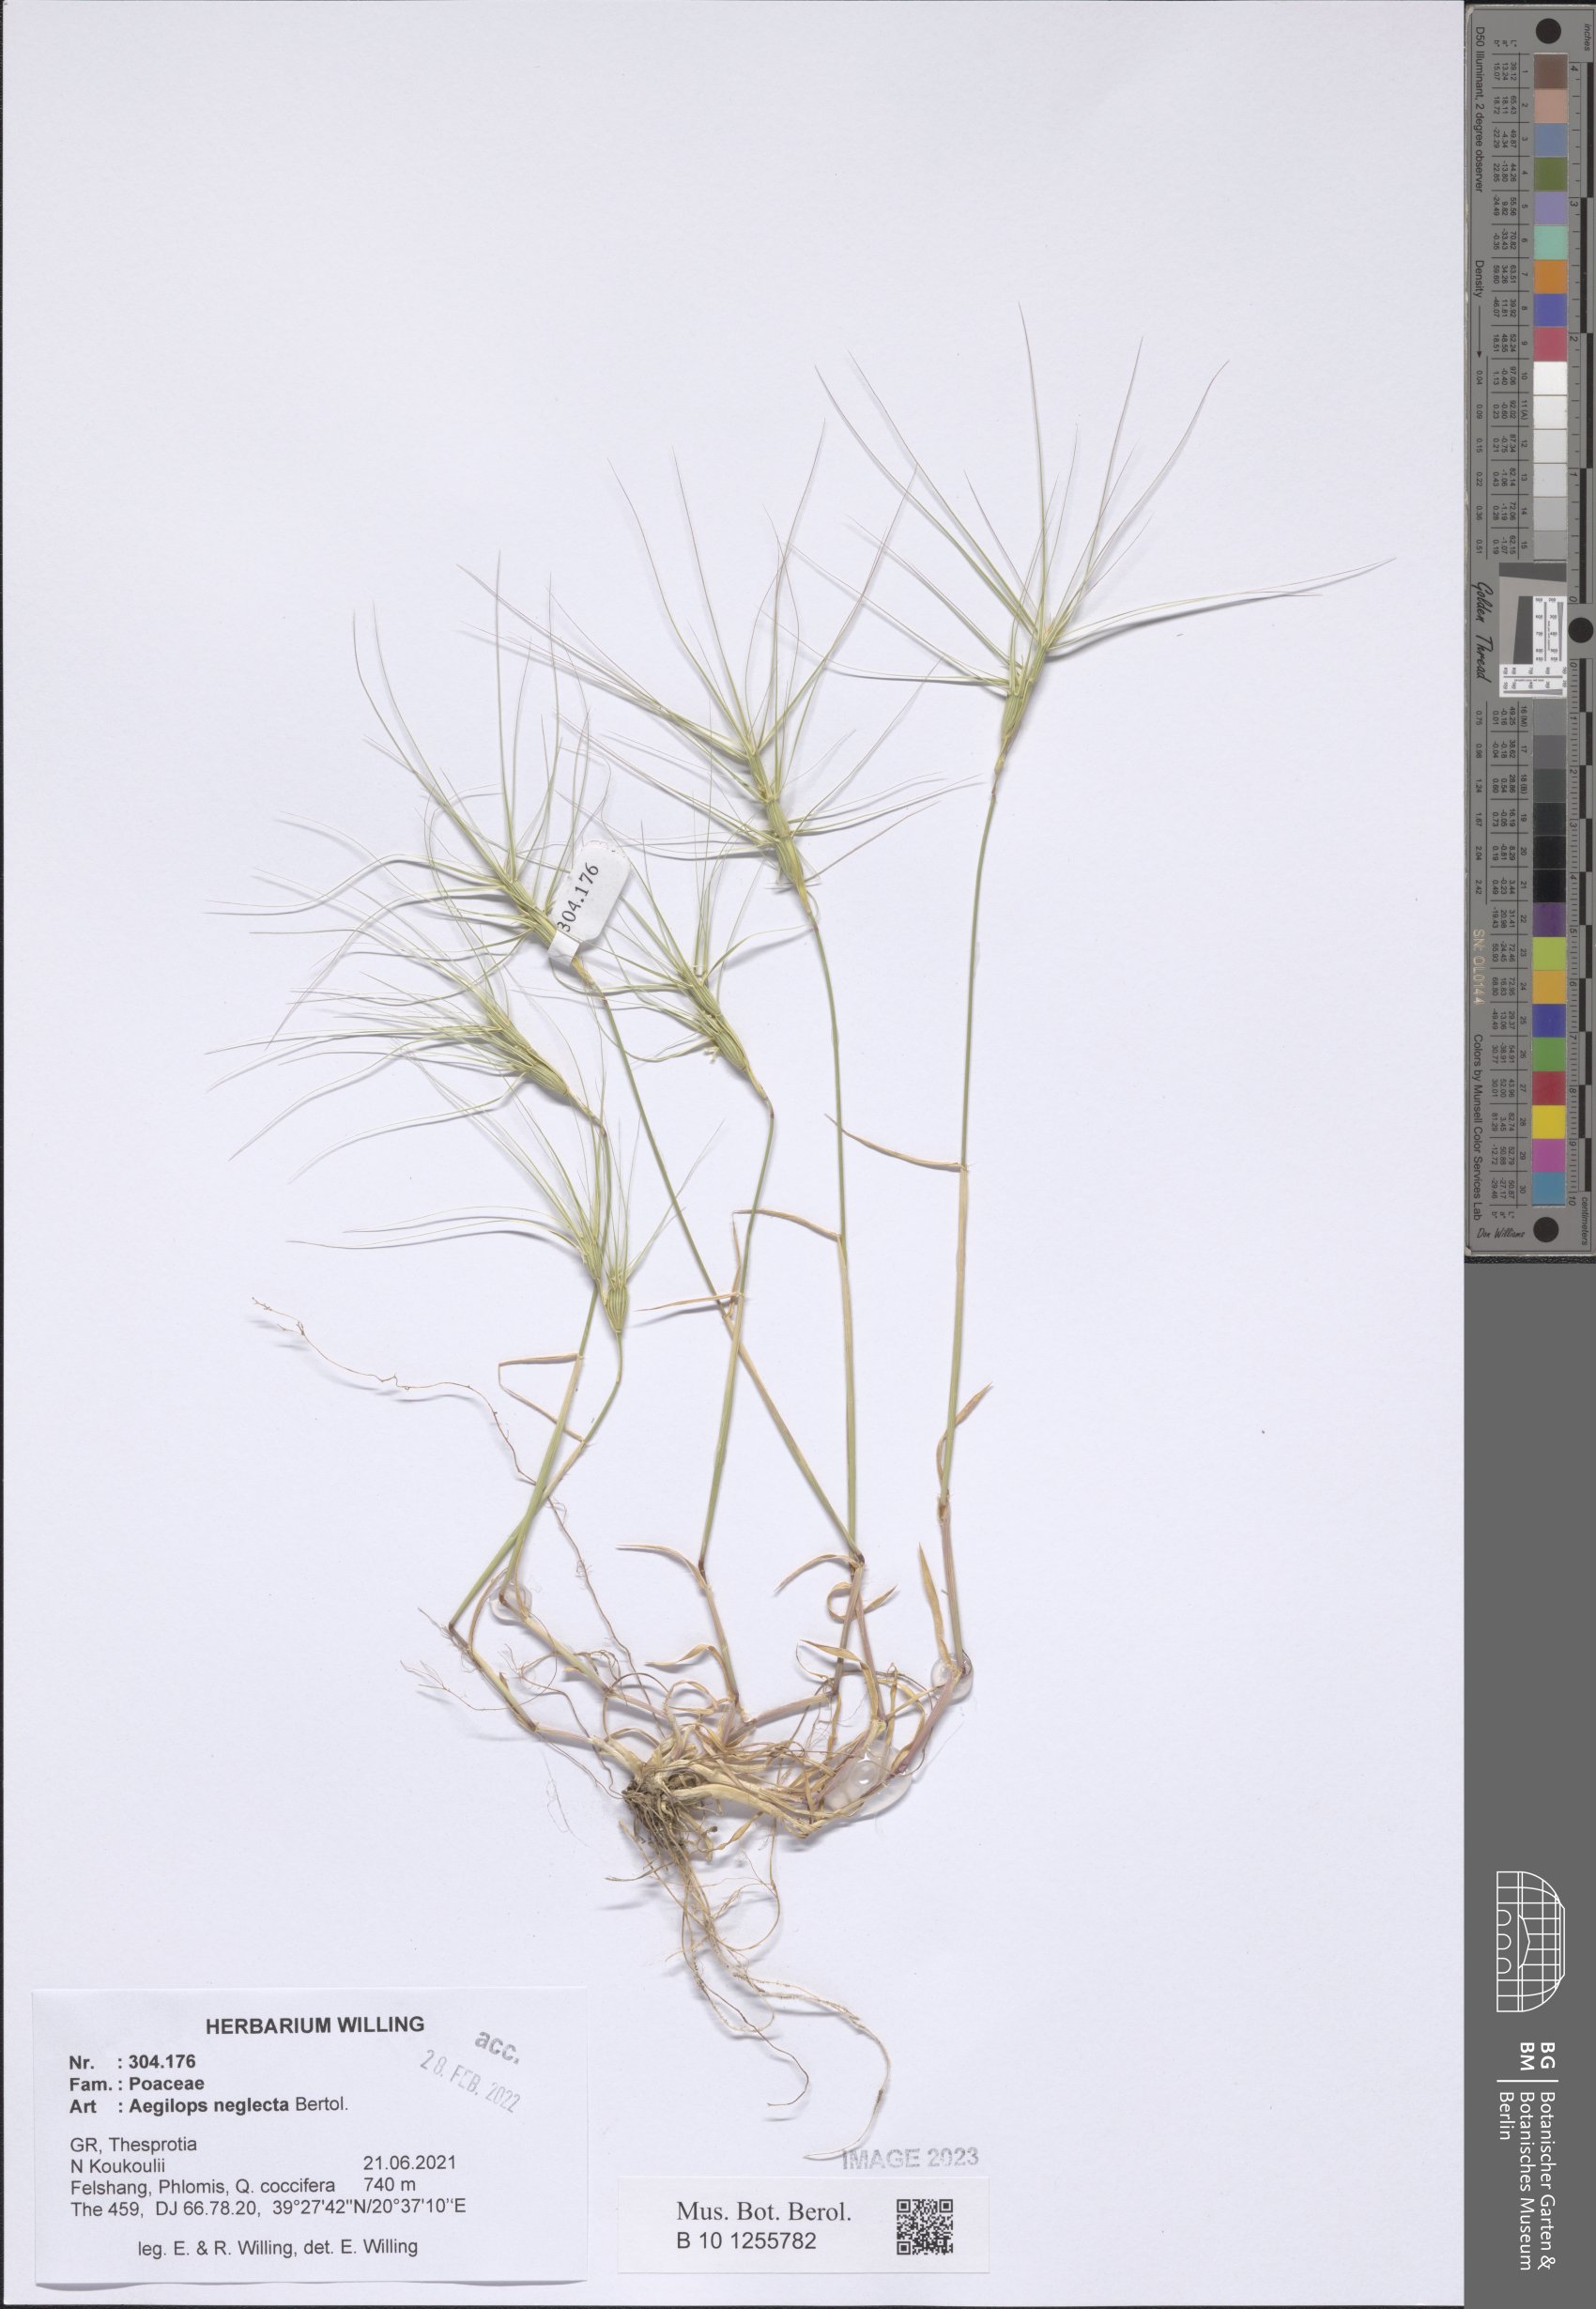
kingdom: Plantae
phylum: Tracheophyta
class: Liliopsida
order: Poales
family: Poaceae
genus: Aegilops
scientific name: Aegilops neglecta
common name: Three-awn goat grass
